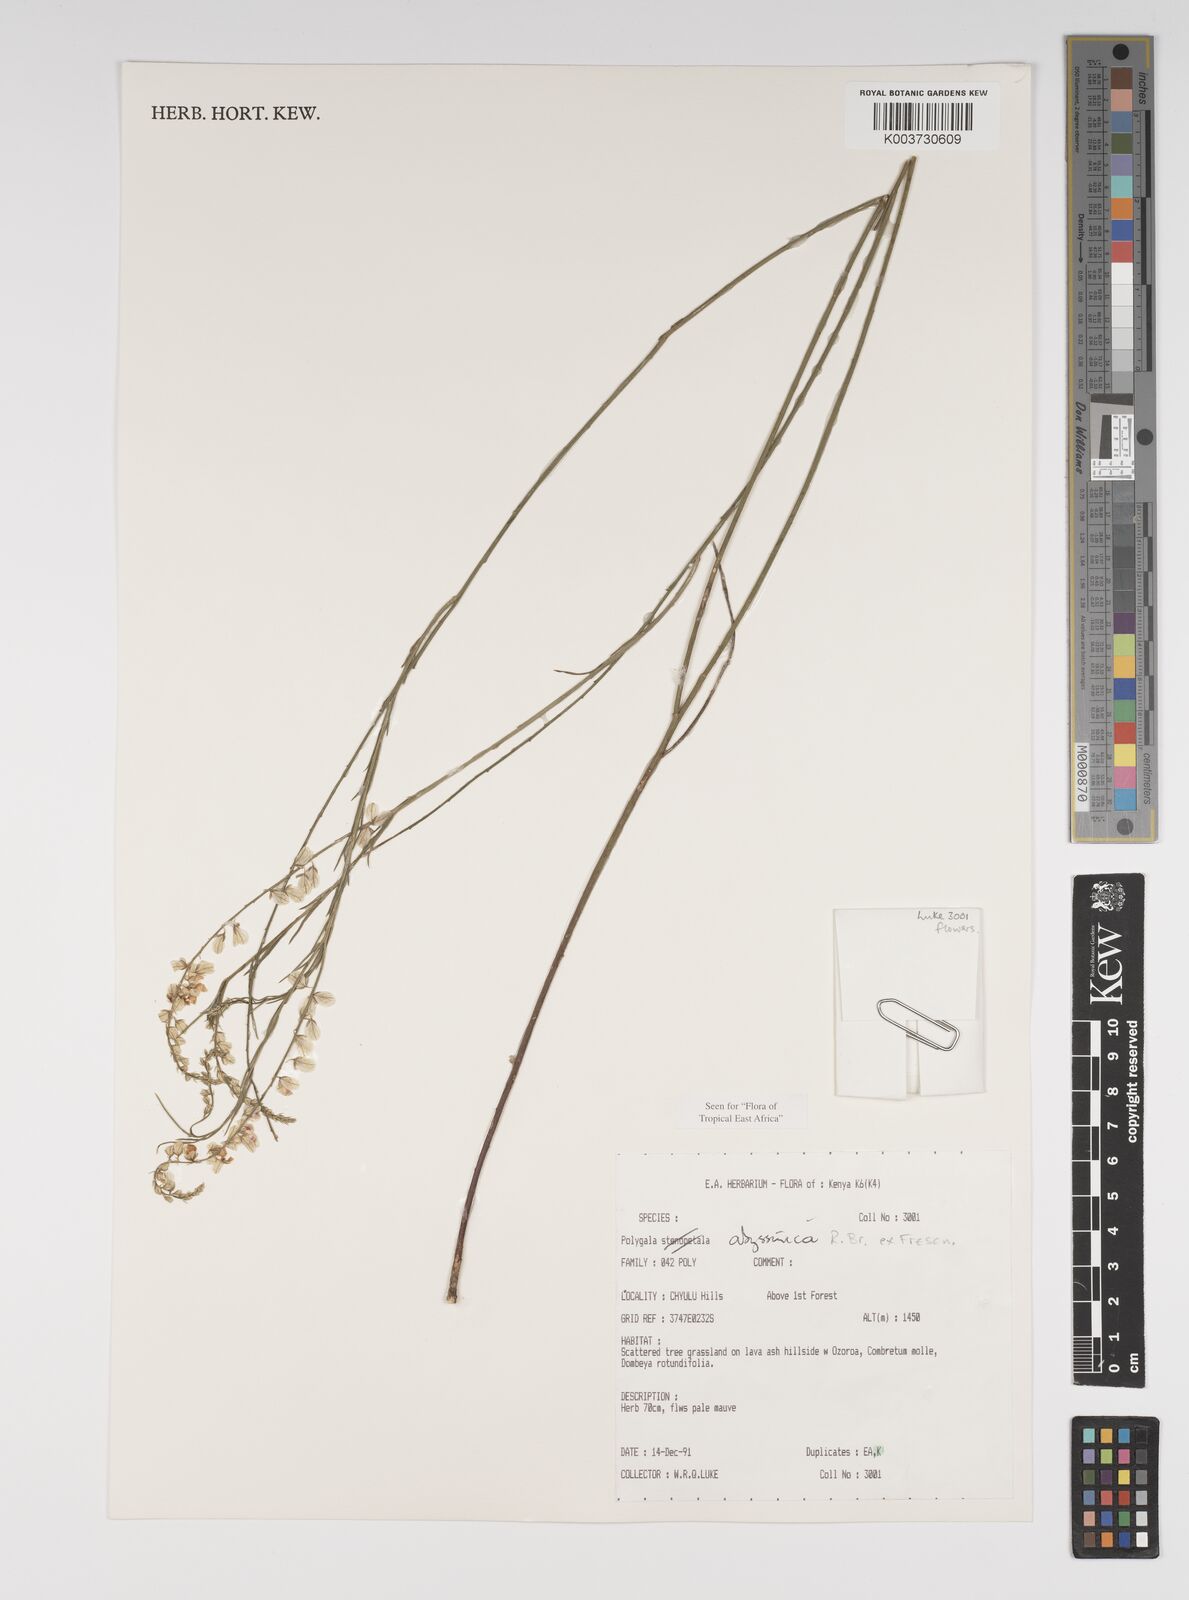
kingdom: Plantae
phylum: Tracheophyta
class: Magnoliopsida
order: Fabales
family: Polygalaceae
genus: Polygala
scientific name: Polygala abyssinica
